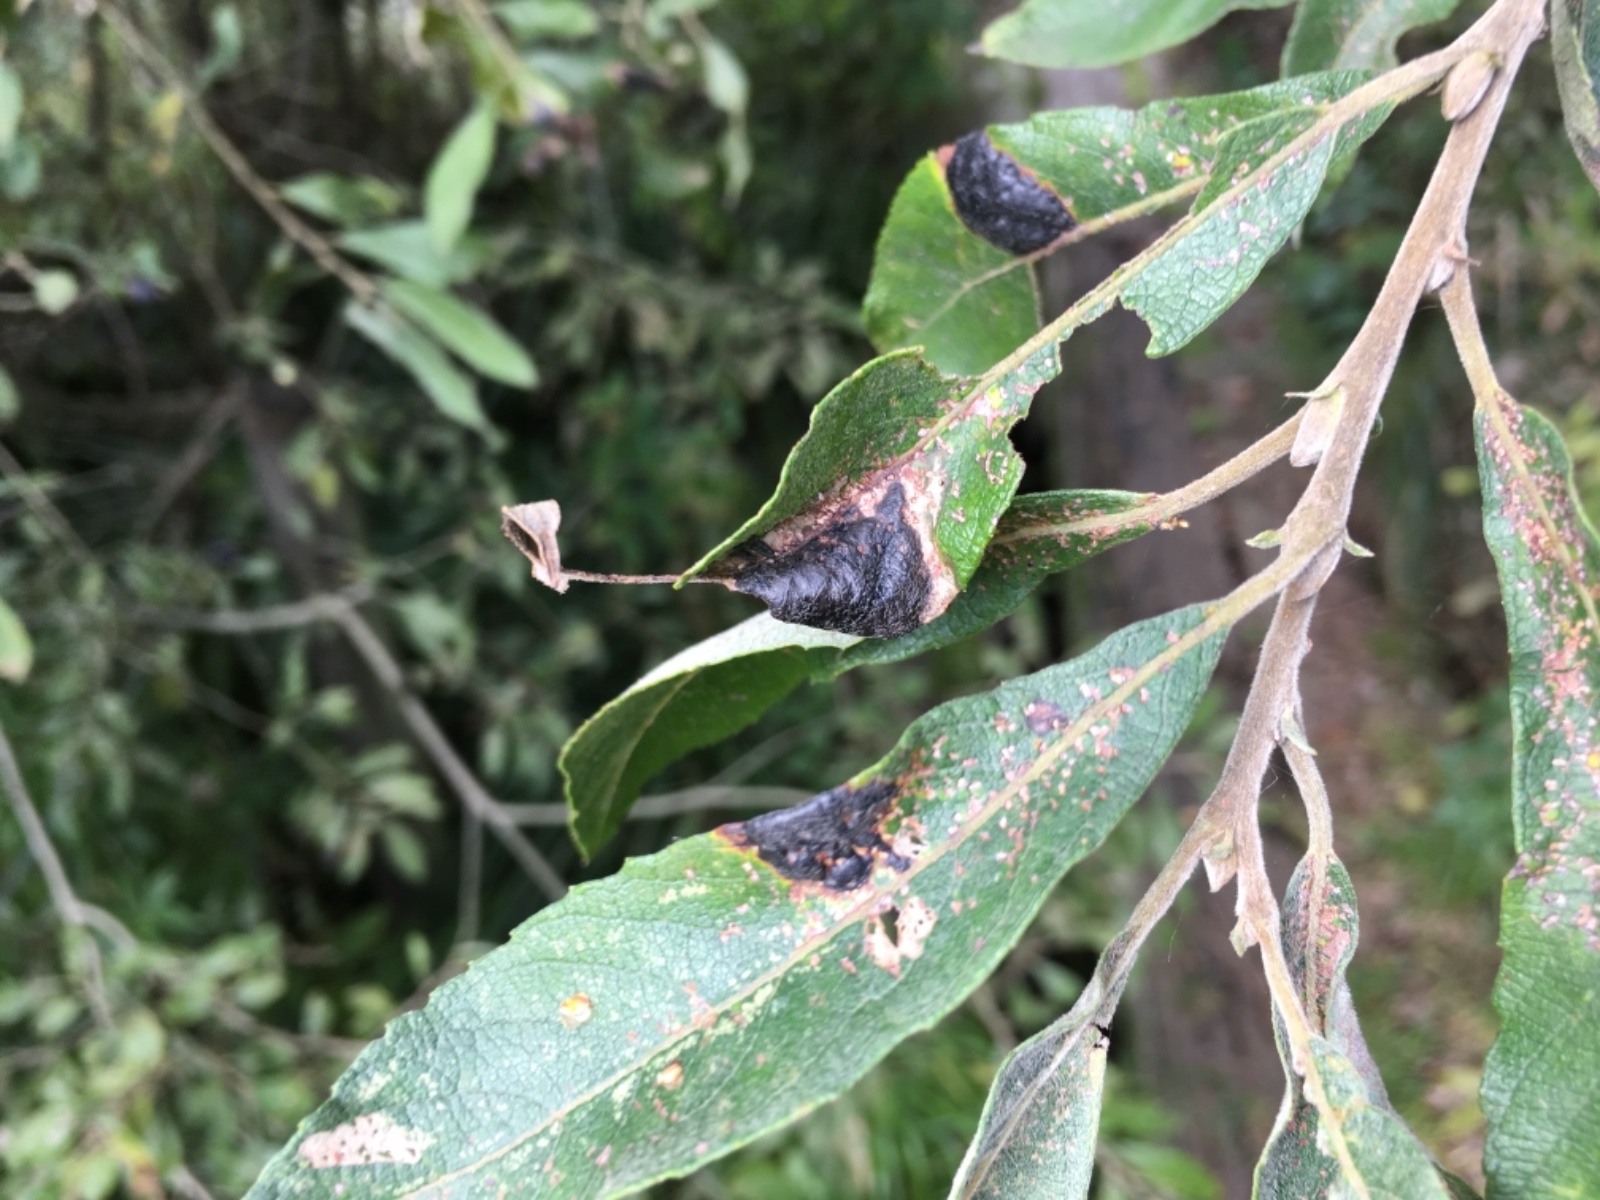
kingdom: Fungi
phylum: Ascomycota
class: Leotiomycetes
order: Rhytismatales
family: Rhytismataceae
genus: Rhytisma
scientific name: Rhytisma salicinum
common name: pile-rynkeplet
